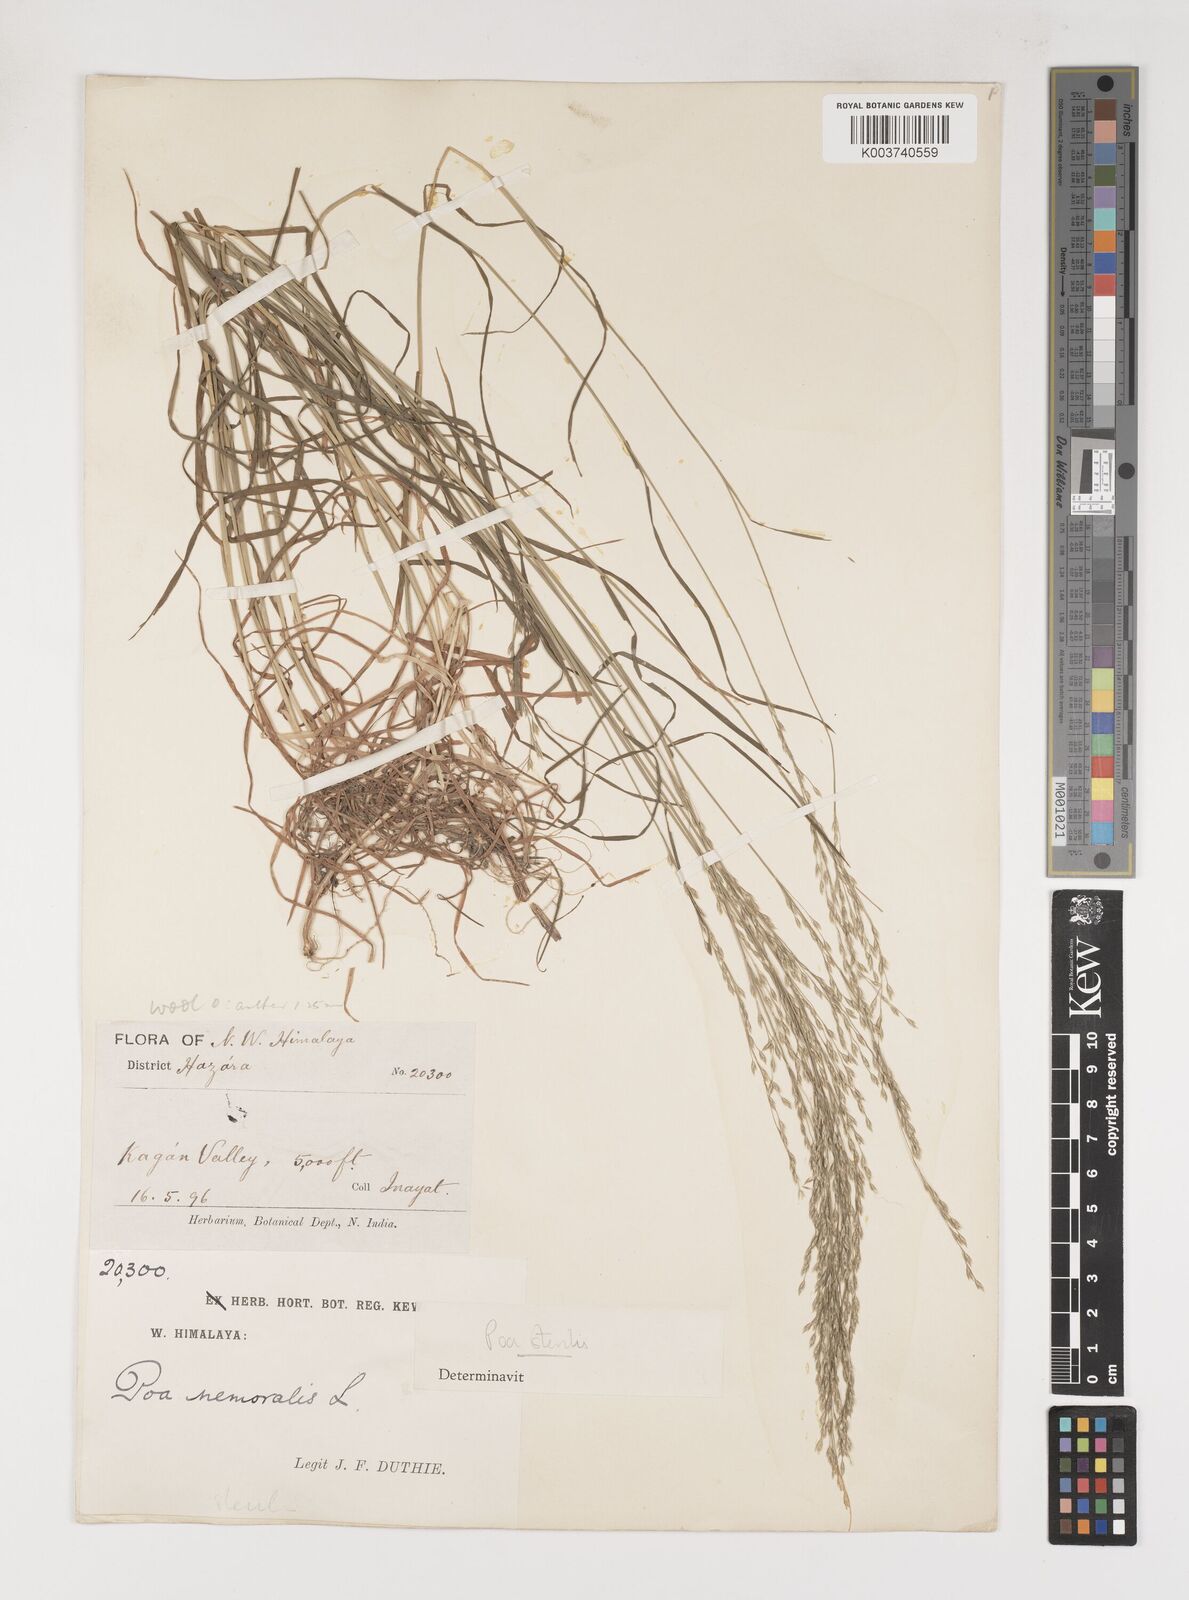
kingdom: Plantae
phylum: Tracheophyta
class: Liliopsida
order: Poales
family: Poaceae
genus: Poa
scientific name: Poa sterilis
